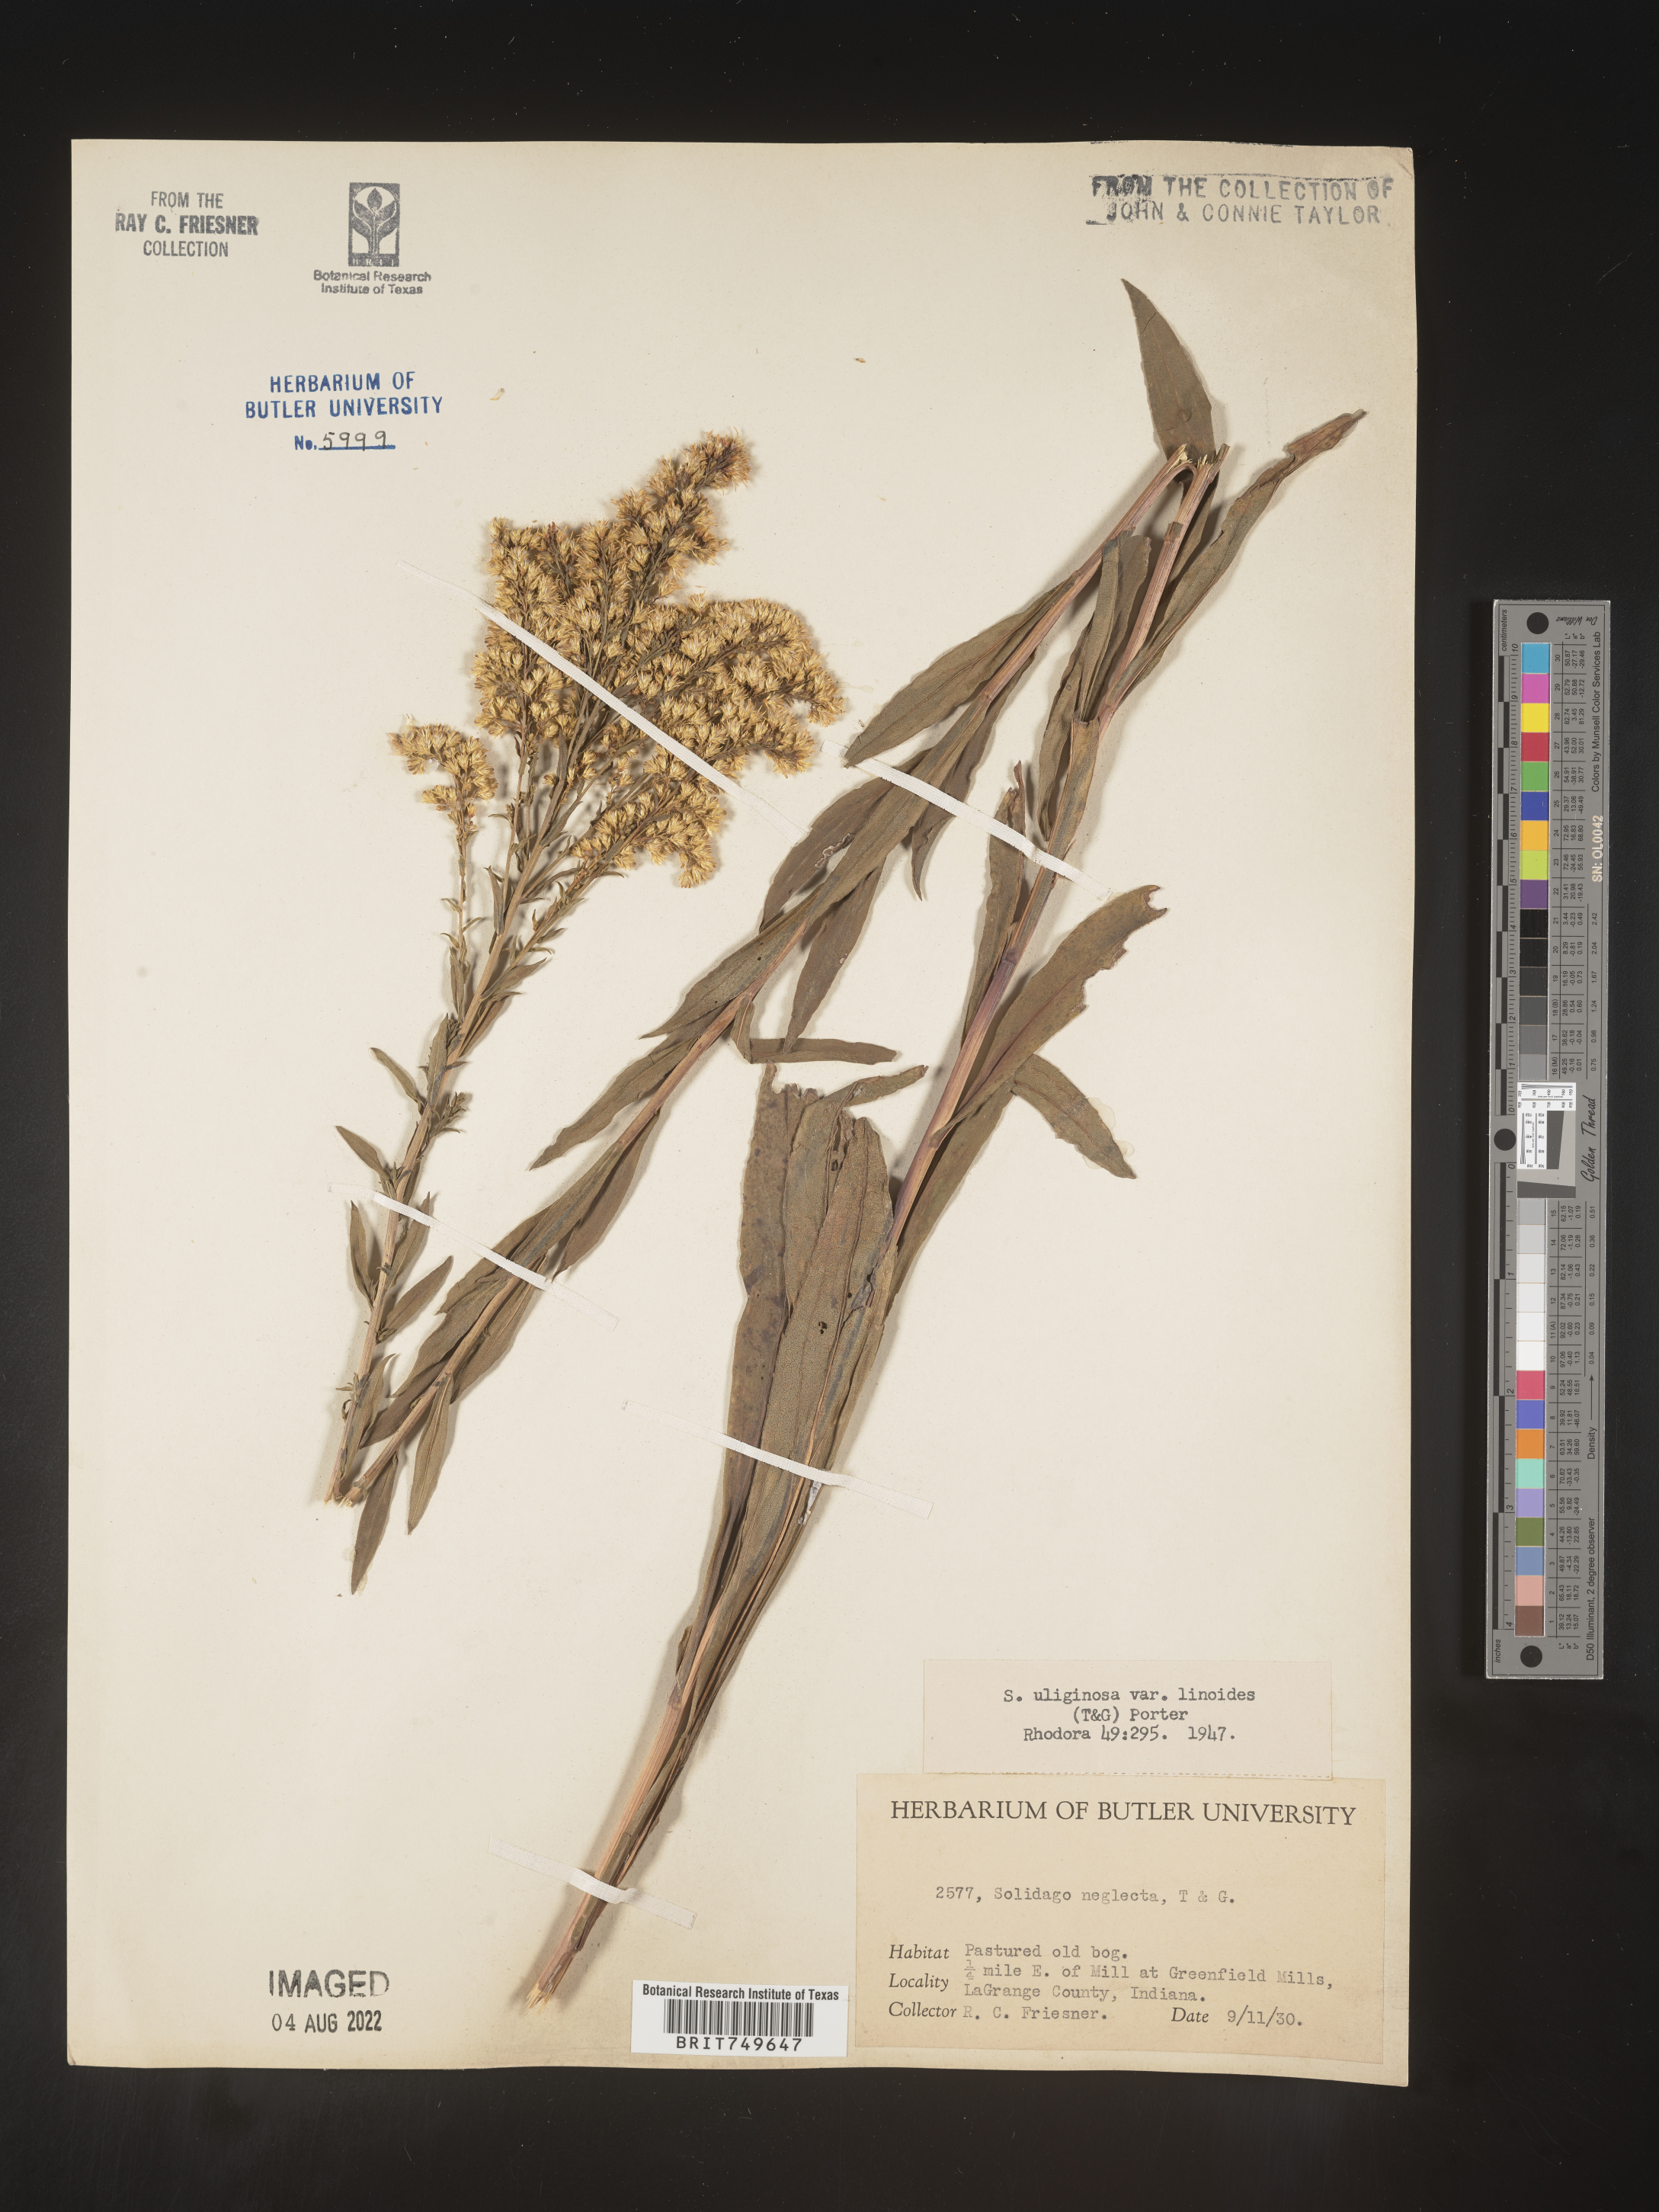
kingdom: Plantae
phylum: Tracheophyta
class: Magnoliopsida
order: Asterales
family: Asteraceae
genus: Solidago
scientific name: Solidago uliginosa
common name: Bog goldenrod
